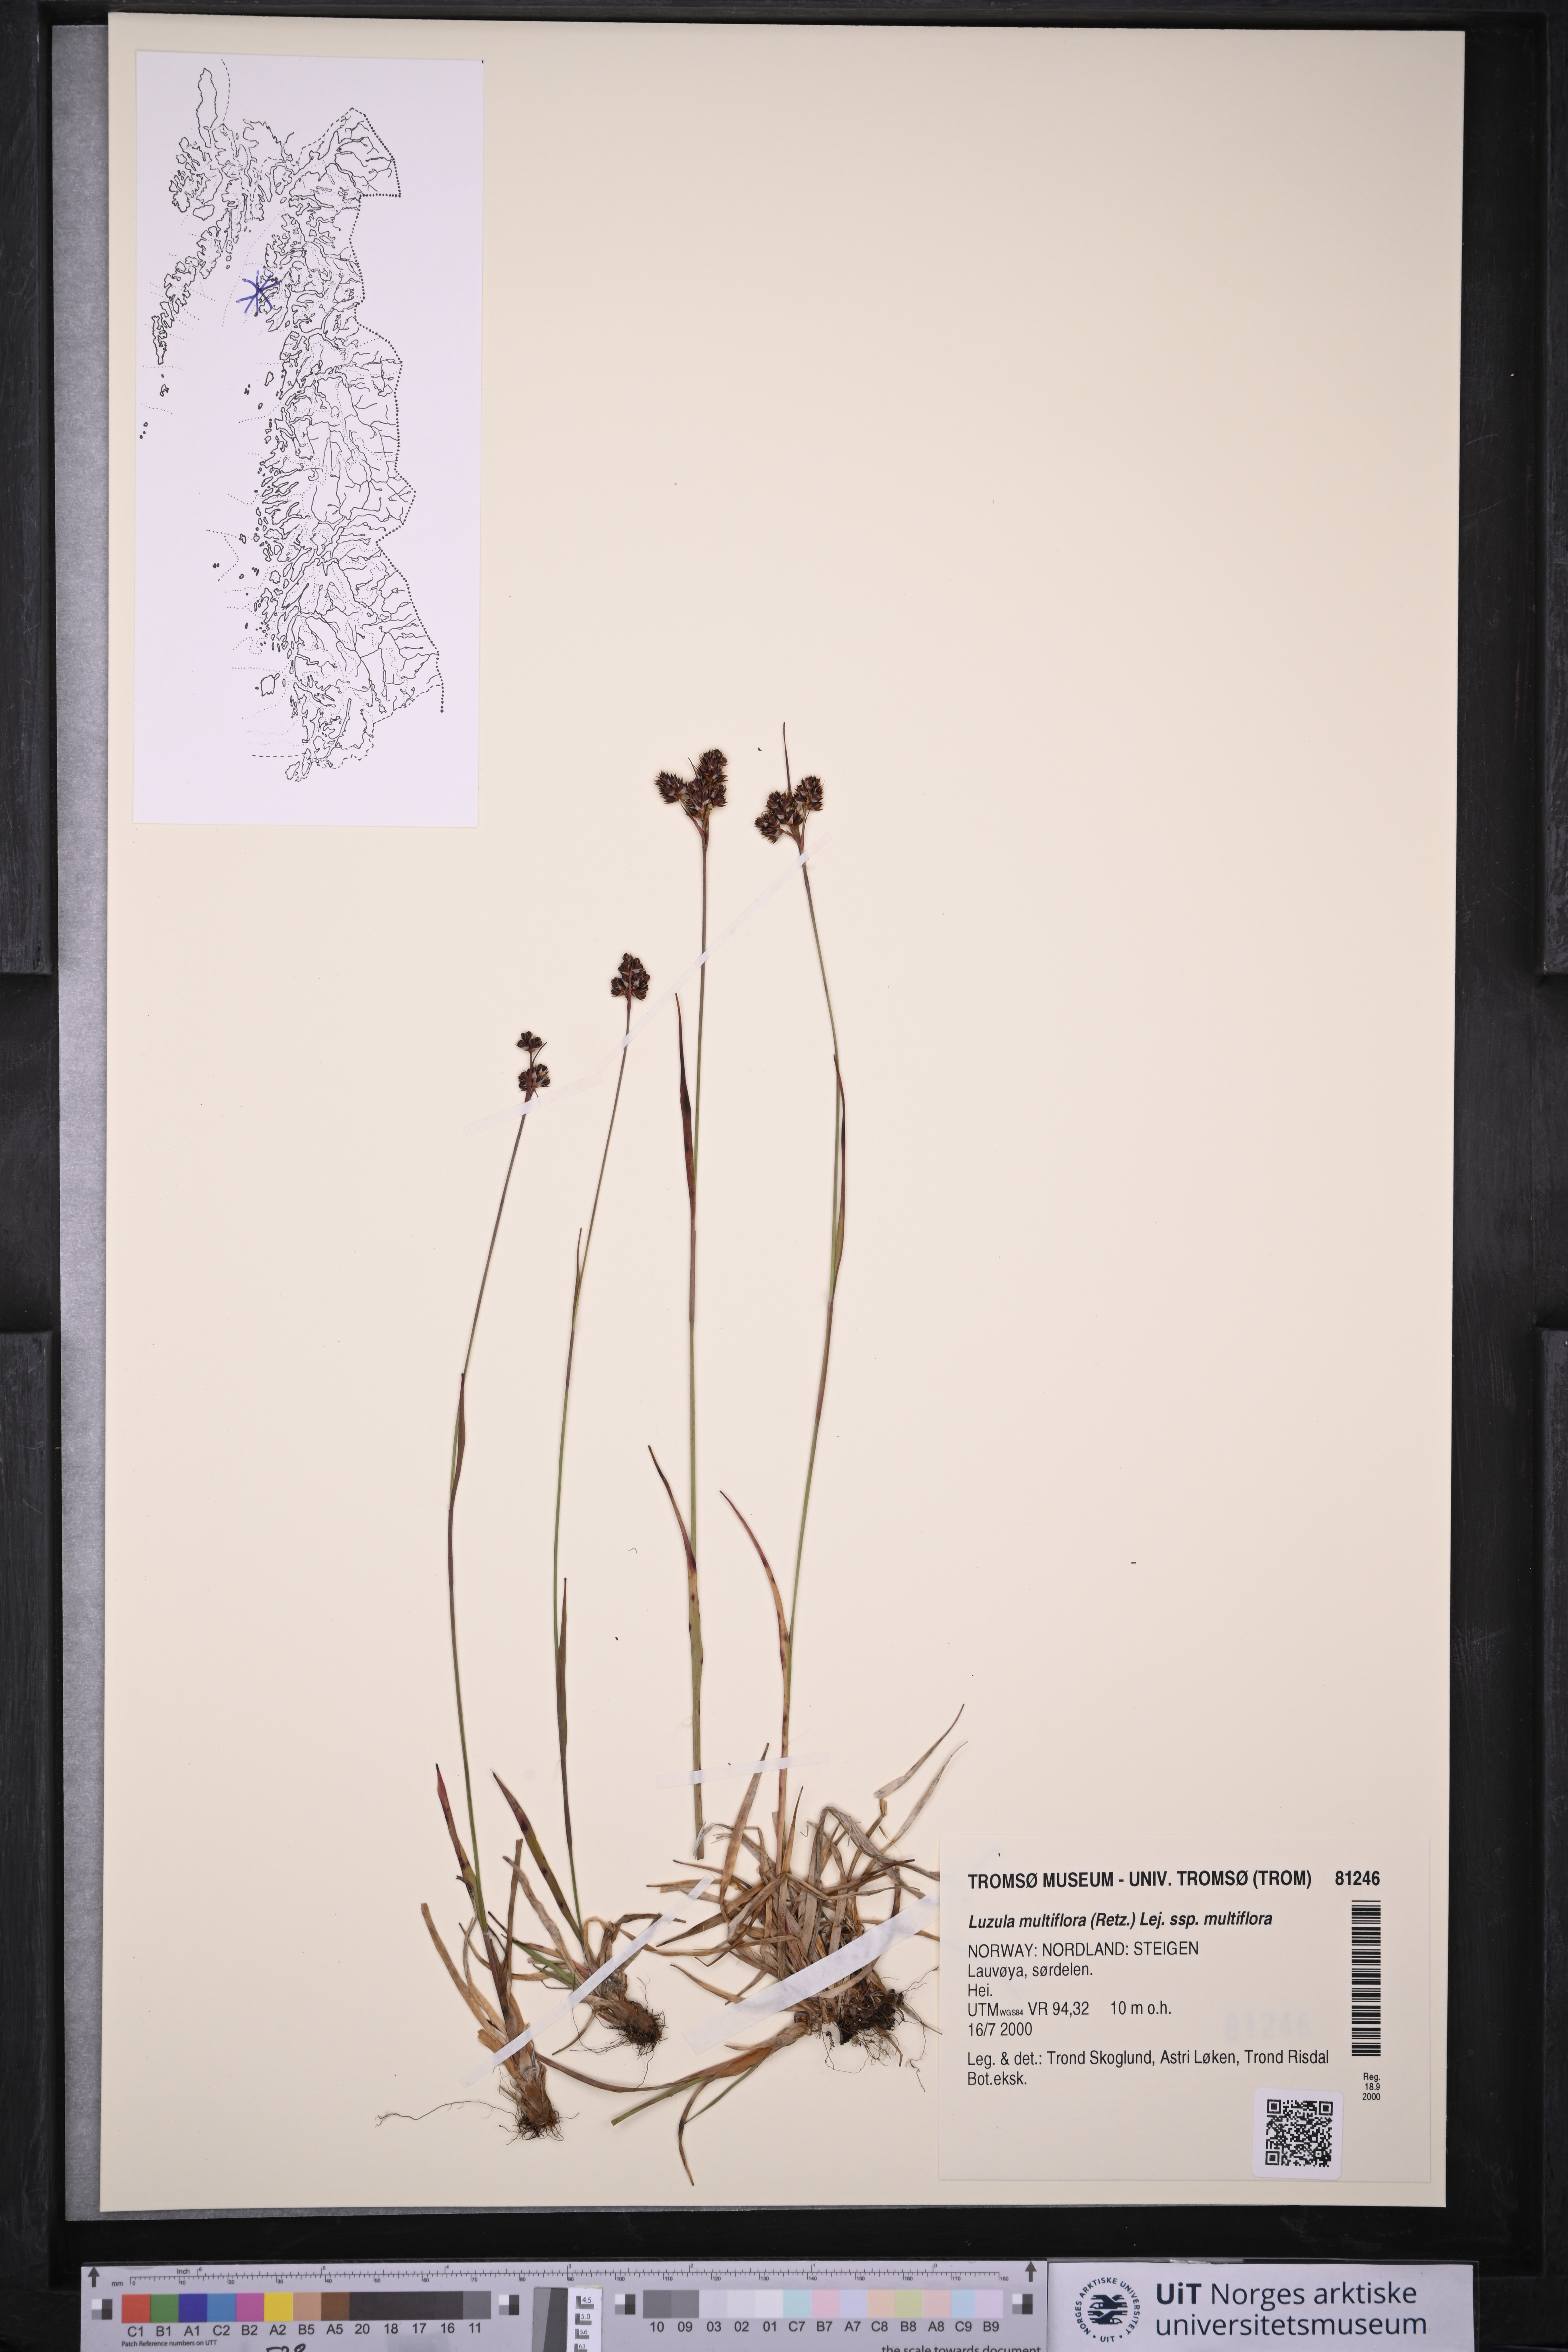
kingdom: Plantae
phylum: Tracheophyta
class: Liliopsida
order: Poales
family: Juncaceae
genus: Luzula
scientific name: Luzula multiflora
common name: Heath wood-rush
